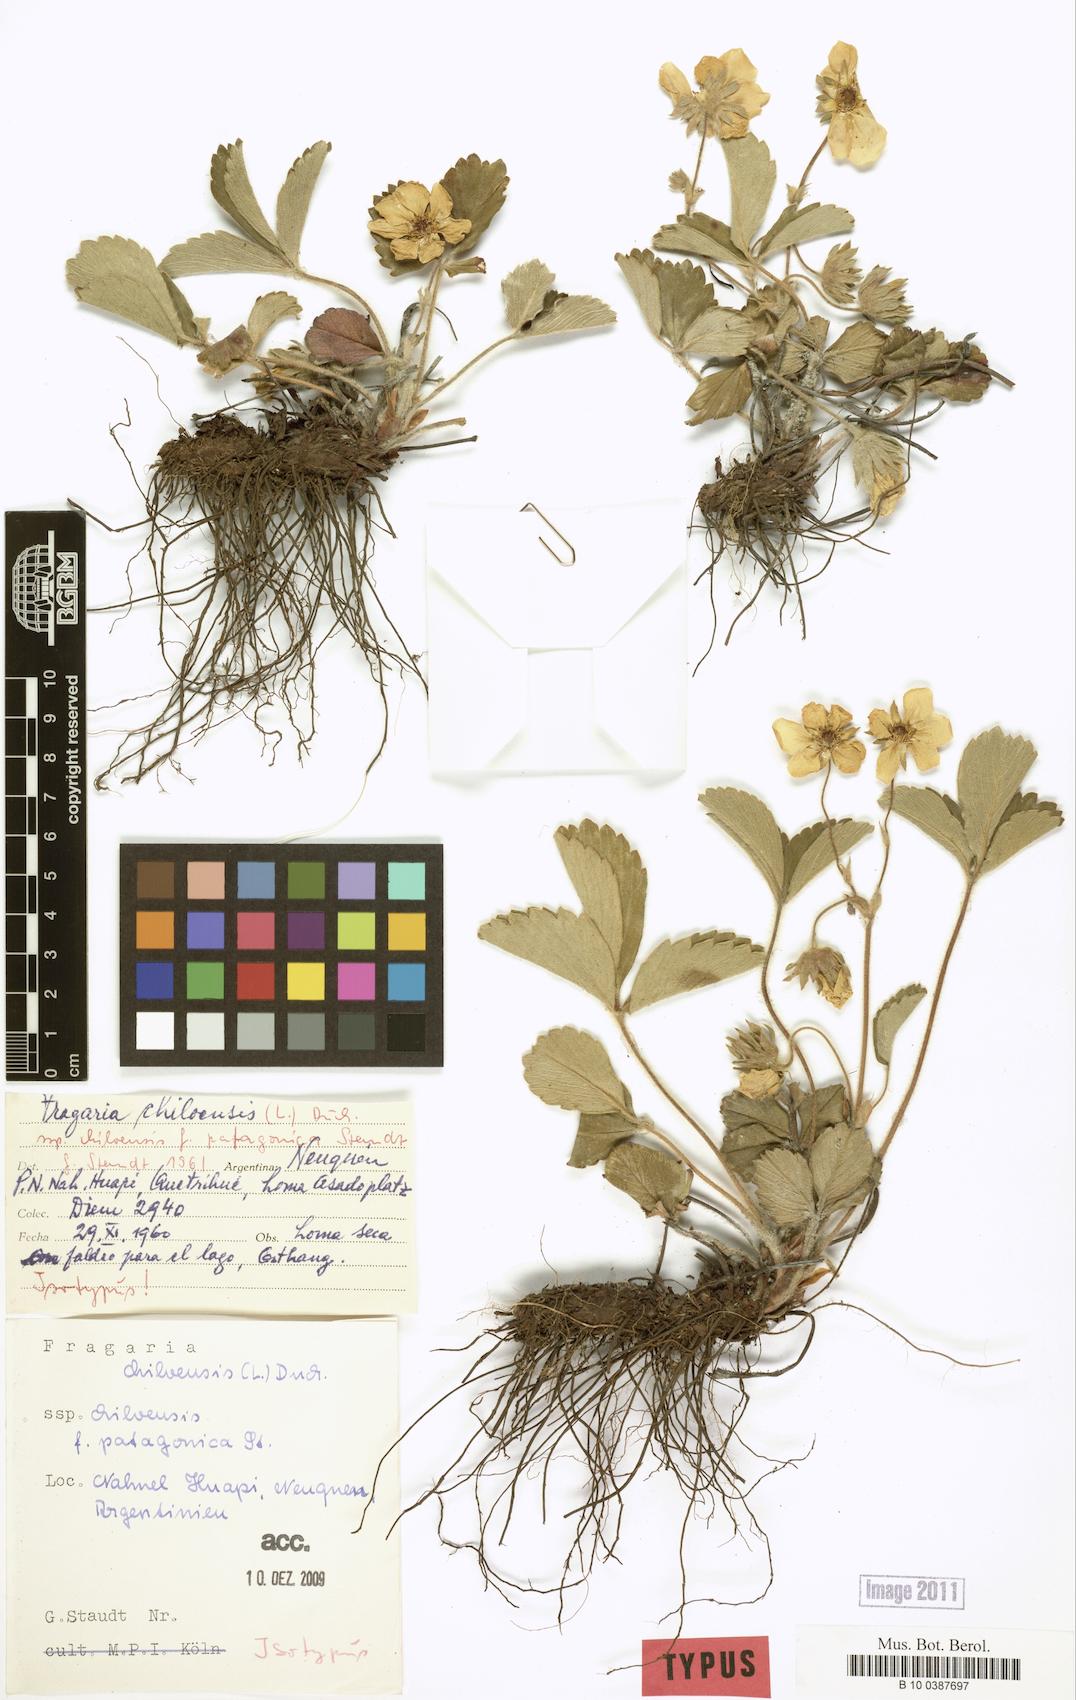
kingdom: Plantae
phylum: Tracheophyta
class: Magnoliopsida
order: Rosales
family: Rosaceae
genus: Fragaria
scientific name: Fragaria chiloensis
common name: Beach strawberry
